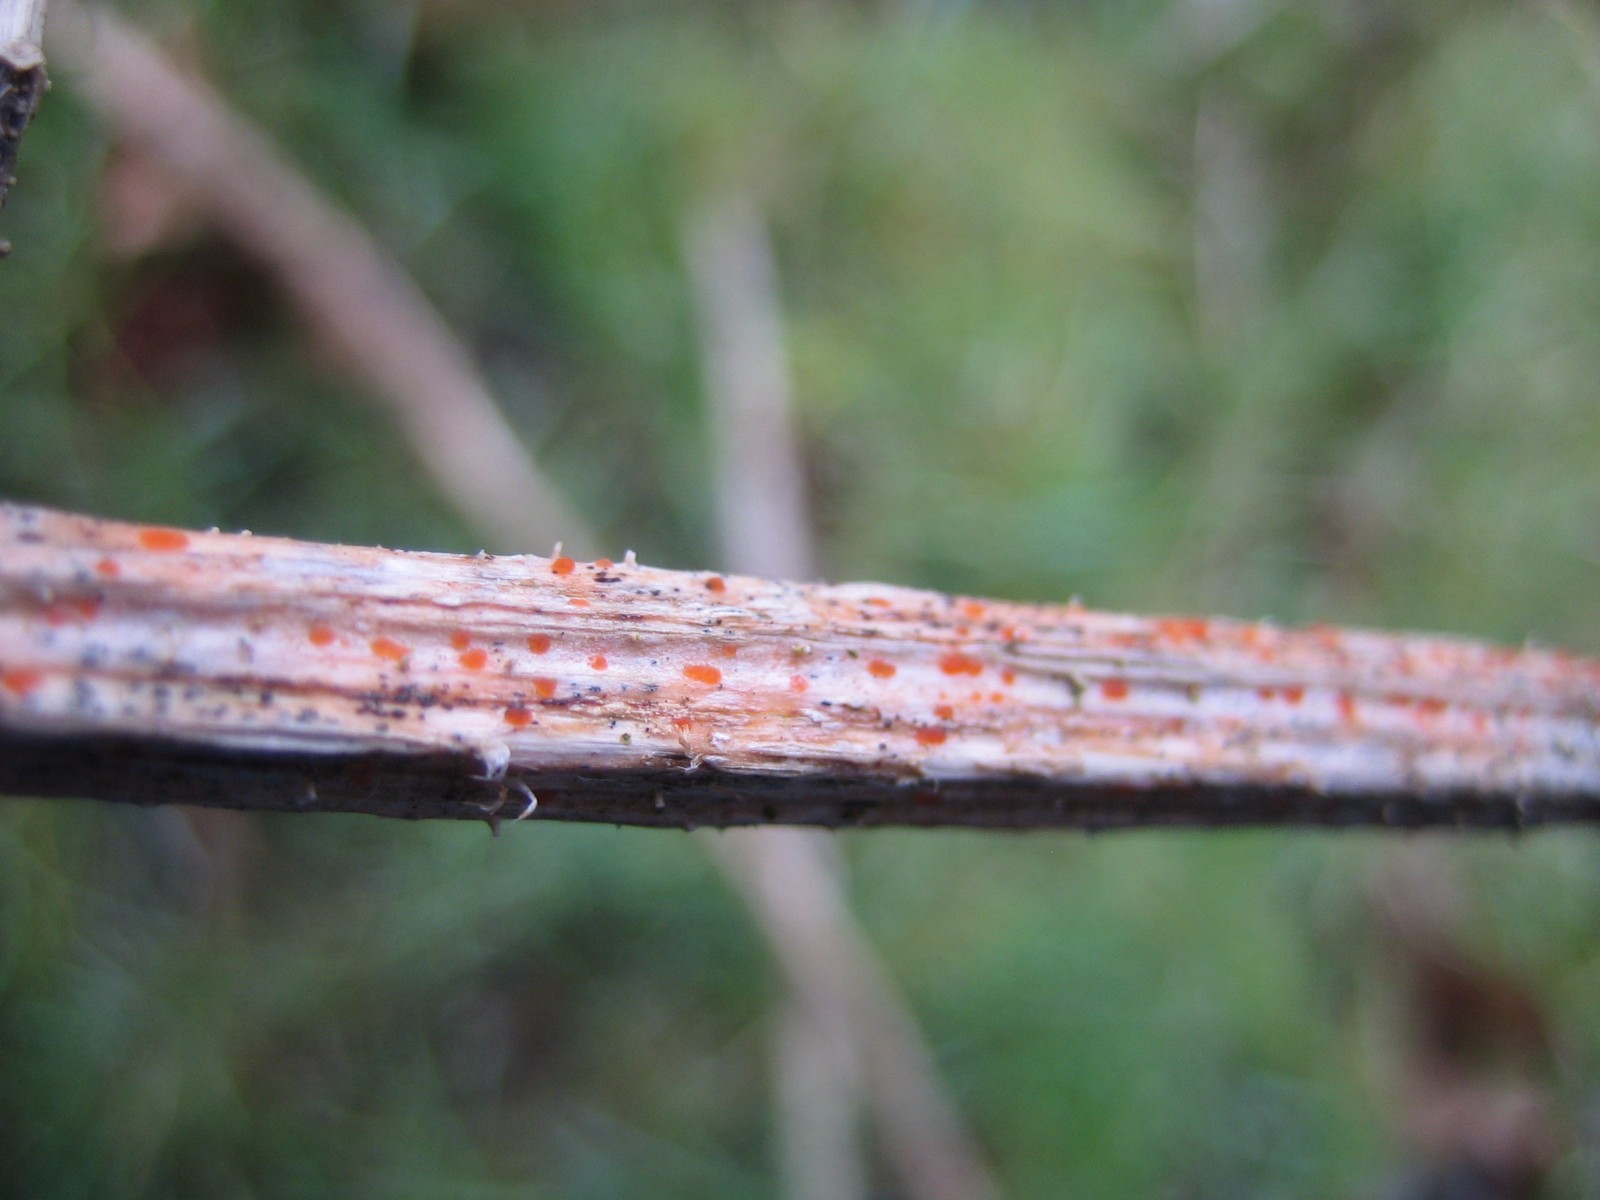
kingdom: Fungi
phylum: Ascomycota
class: Leotiomycetes
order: Helotiales
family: Calloriaceae
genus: Calloria
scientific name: Calloria urticae
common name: nælde-orangeskive
